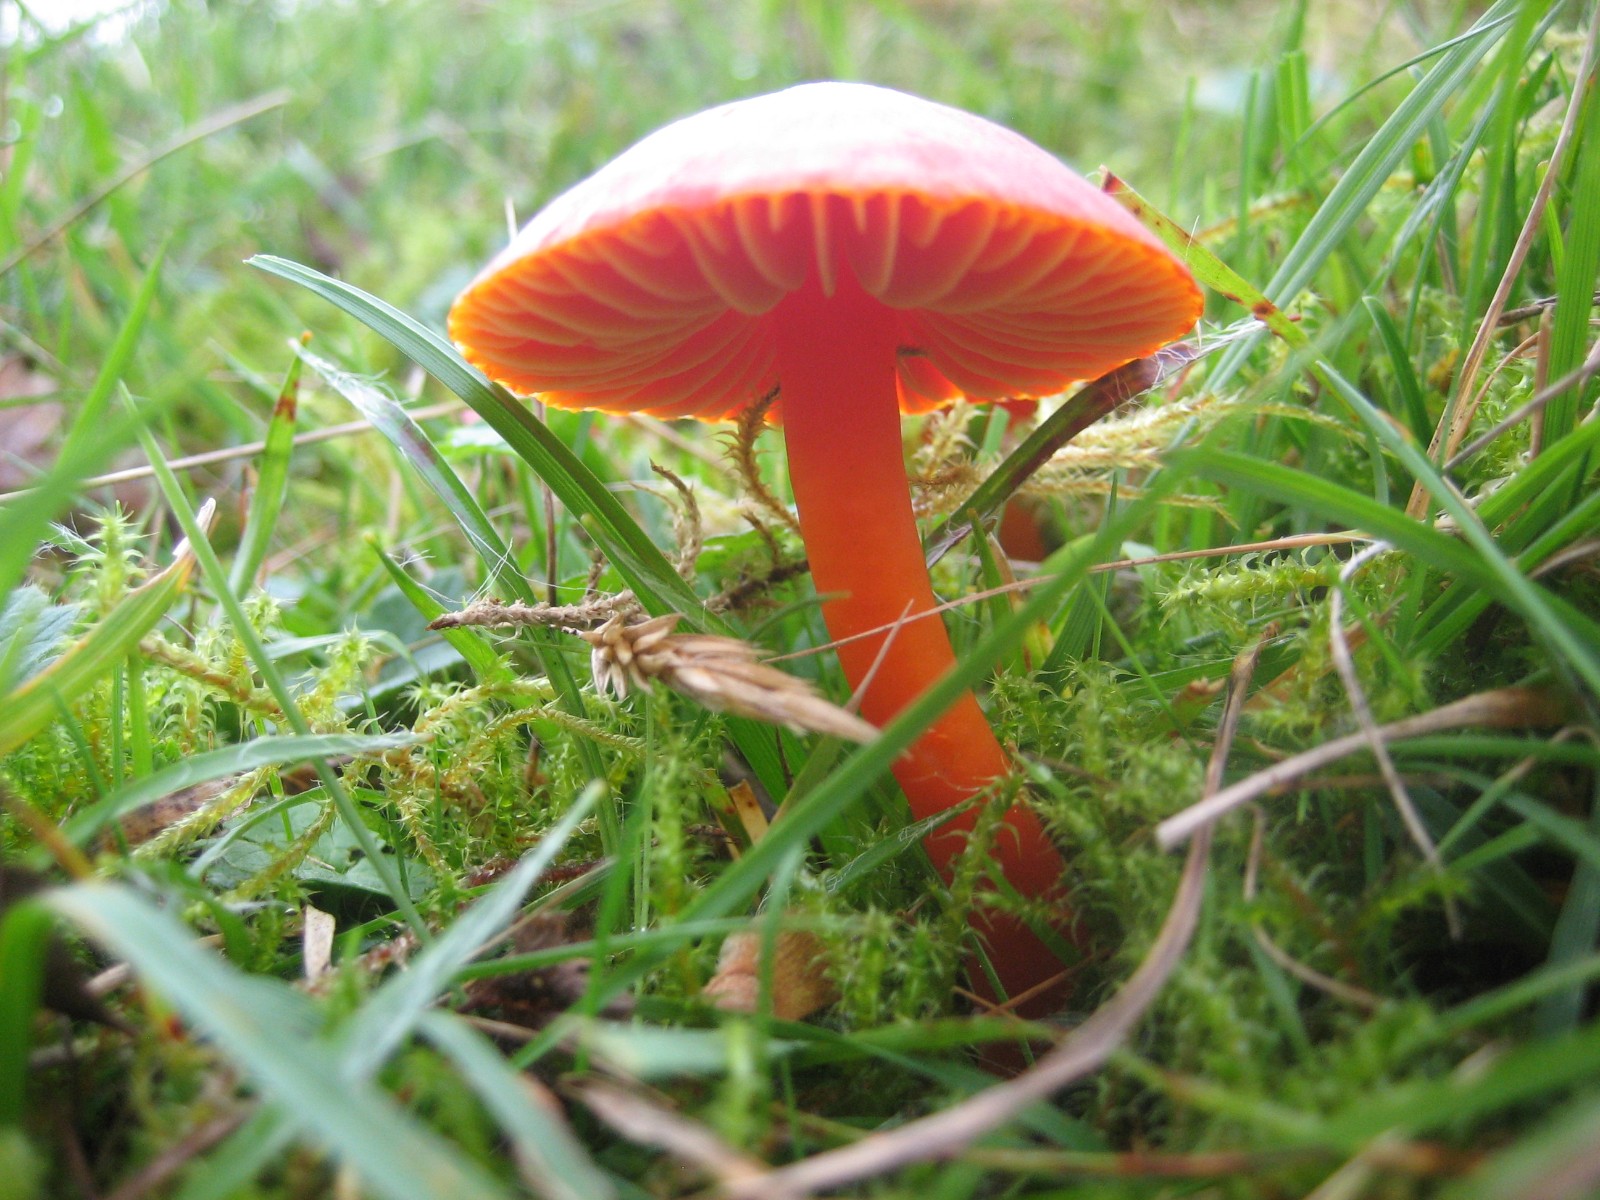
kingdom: Fungi
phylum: Basidiomycota
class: Agaricomycetes
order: Agaricales
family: Hygrophoraceae
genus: Hygrocybe
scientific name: Hygrocybe coccinea
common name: cinnober-vokshat
